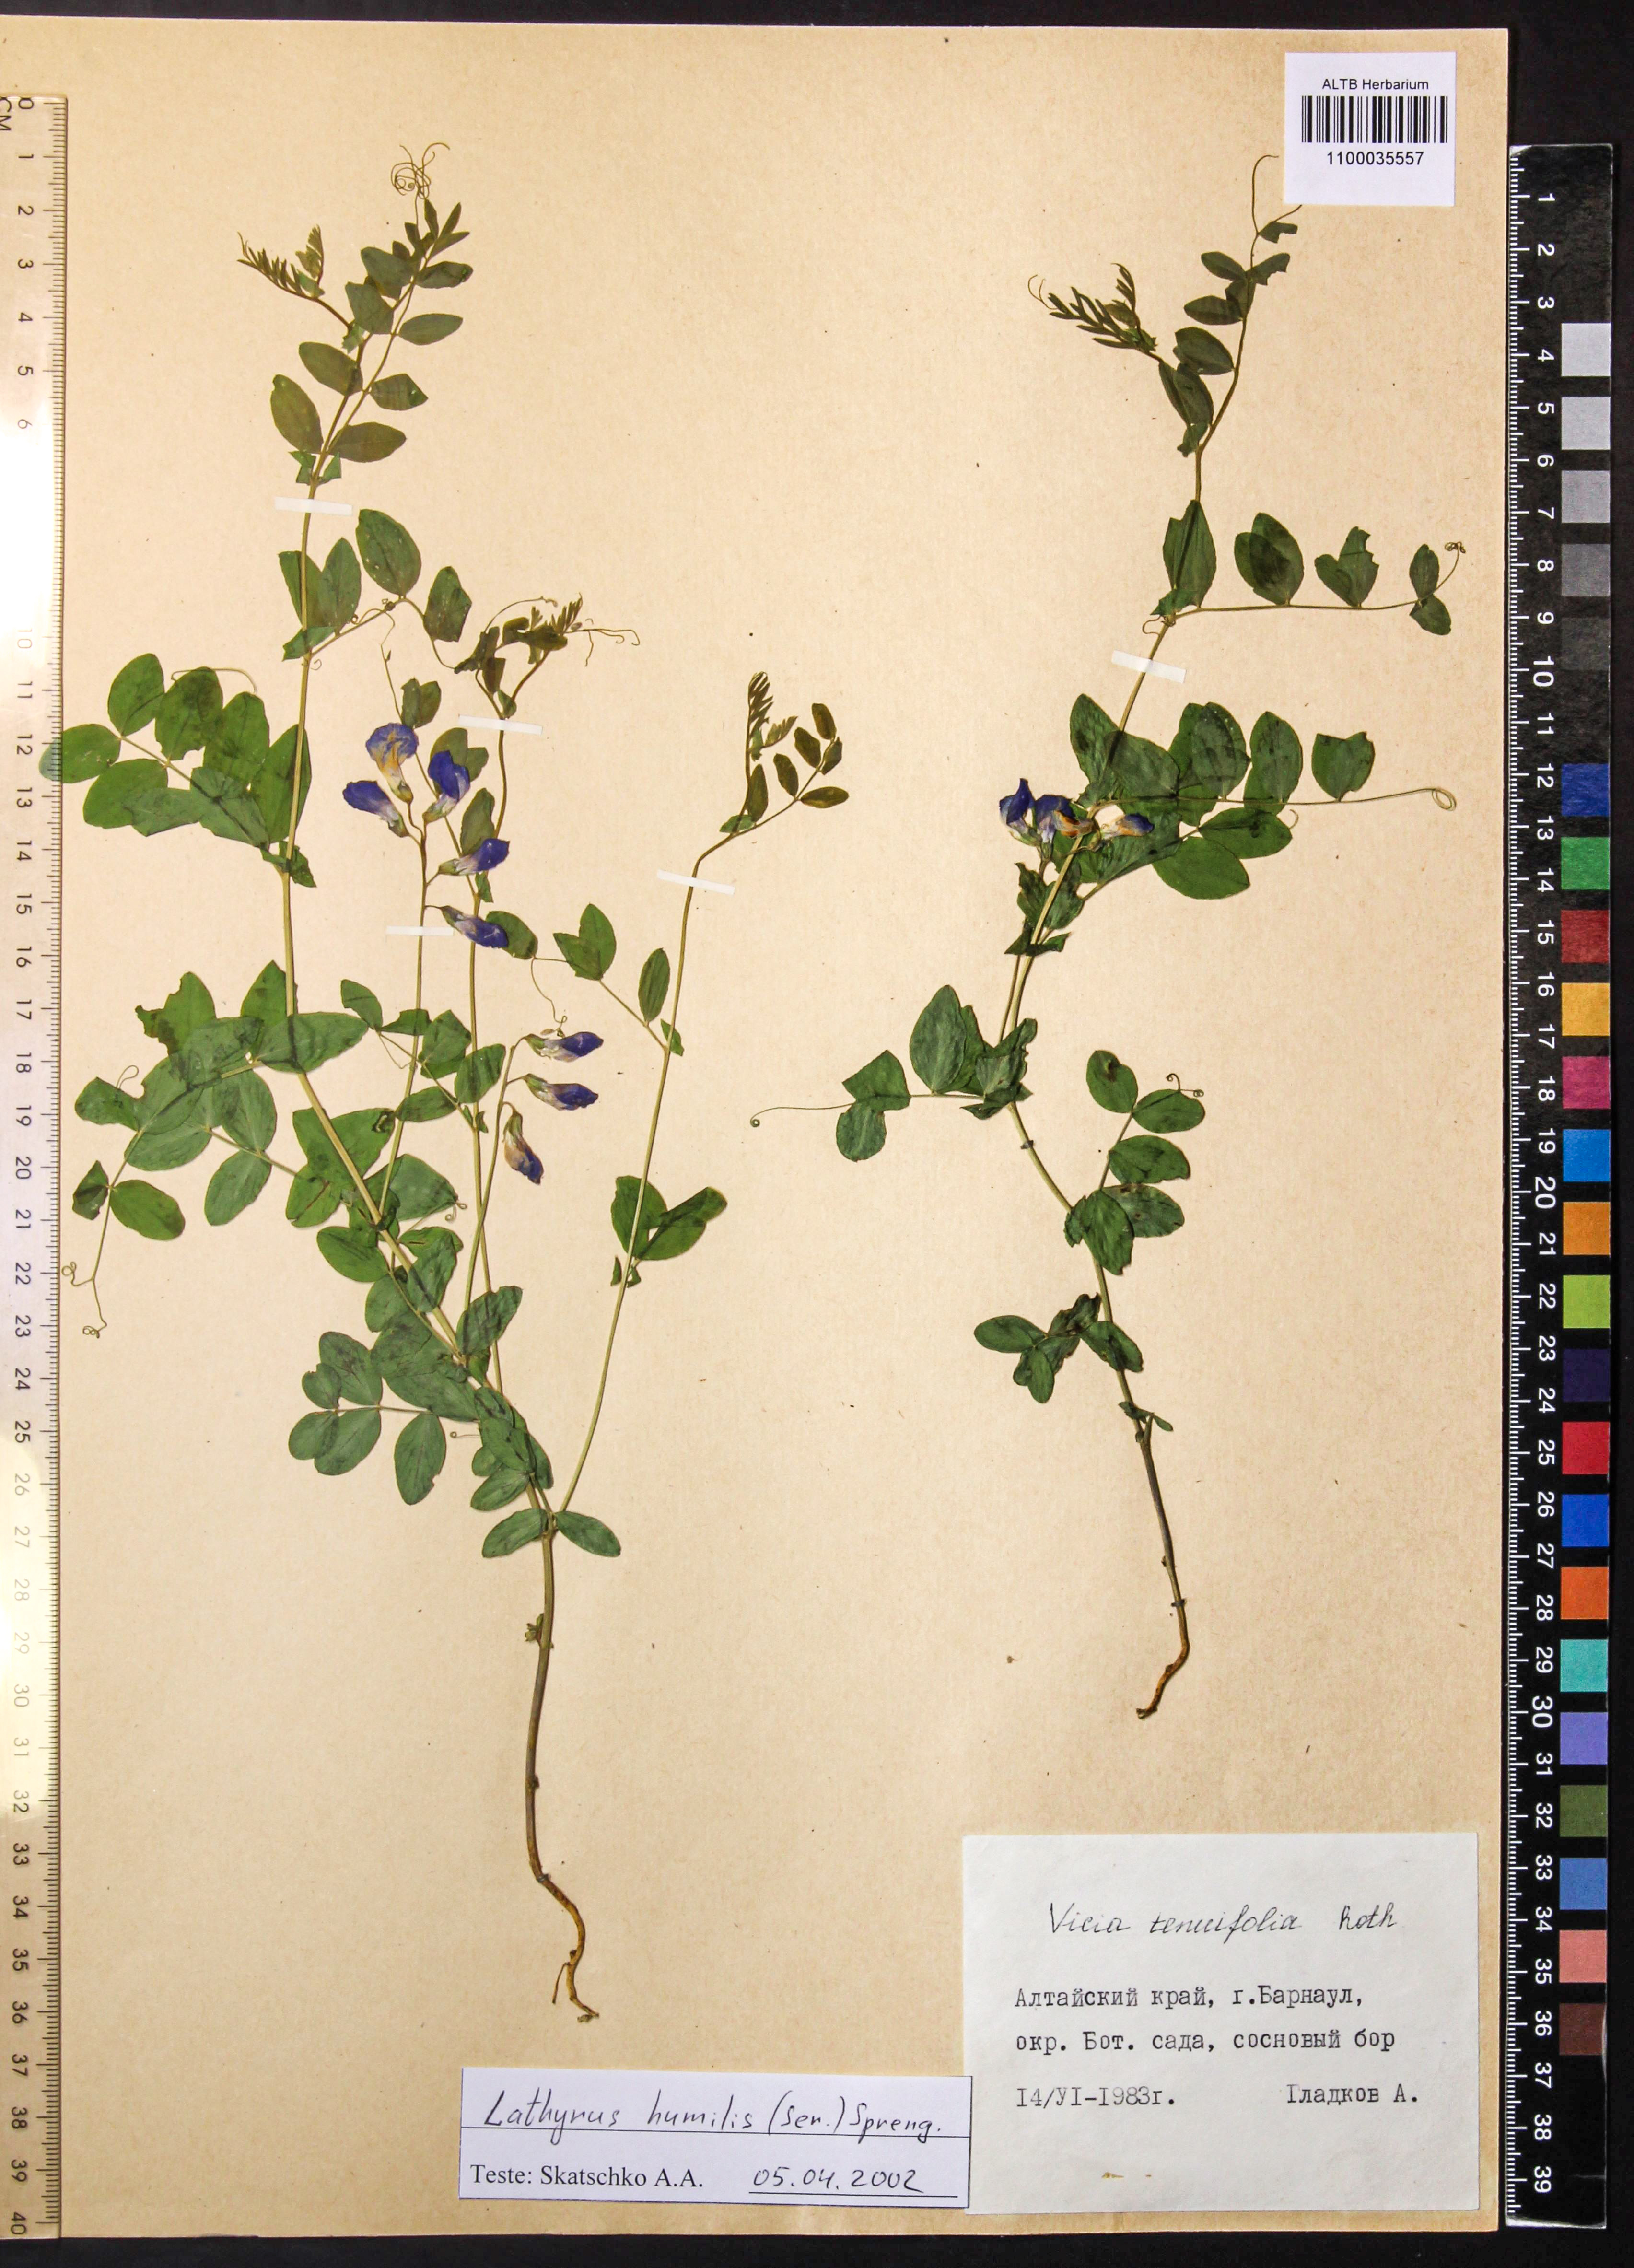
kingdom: Plantae
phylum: Tracheophyta
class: Magnoliopsida
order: Fabales
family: Fabaceae
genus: Lathyrus
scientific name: Lathyrus humilis
